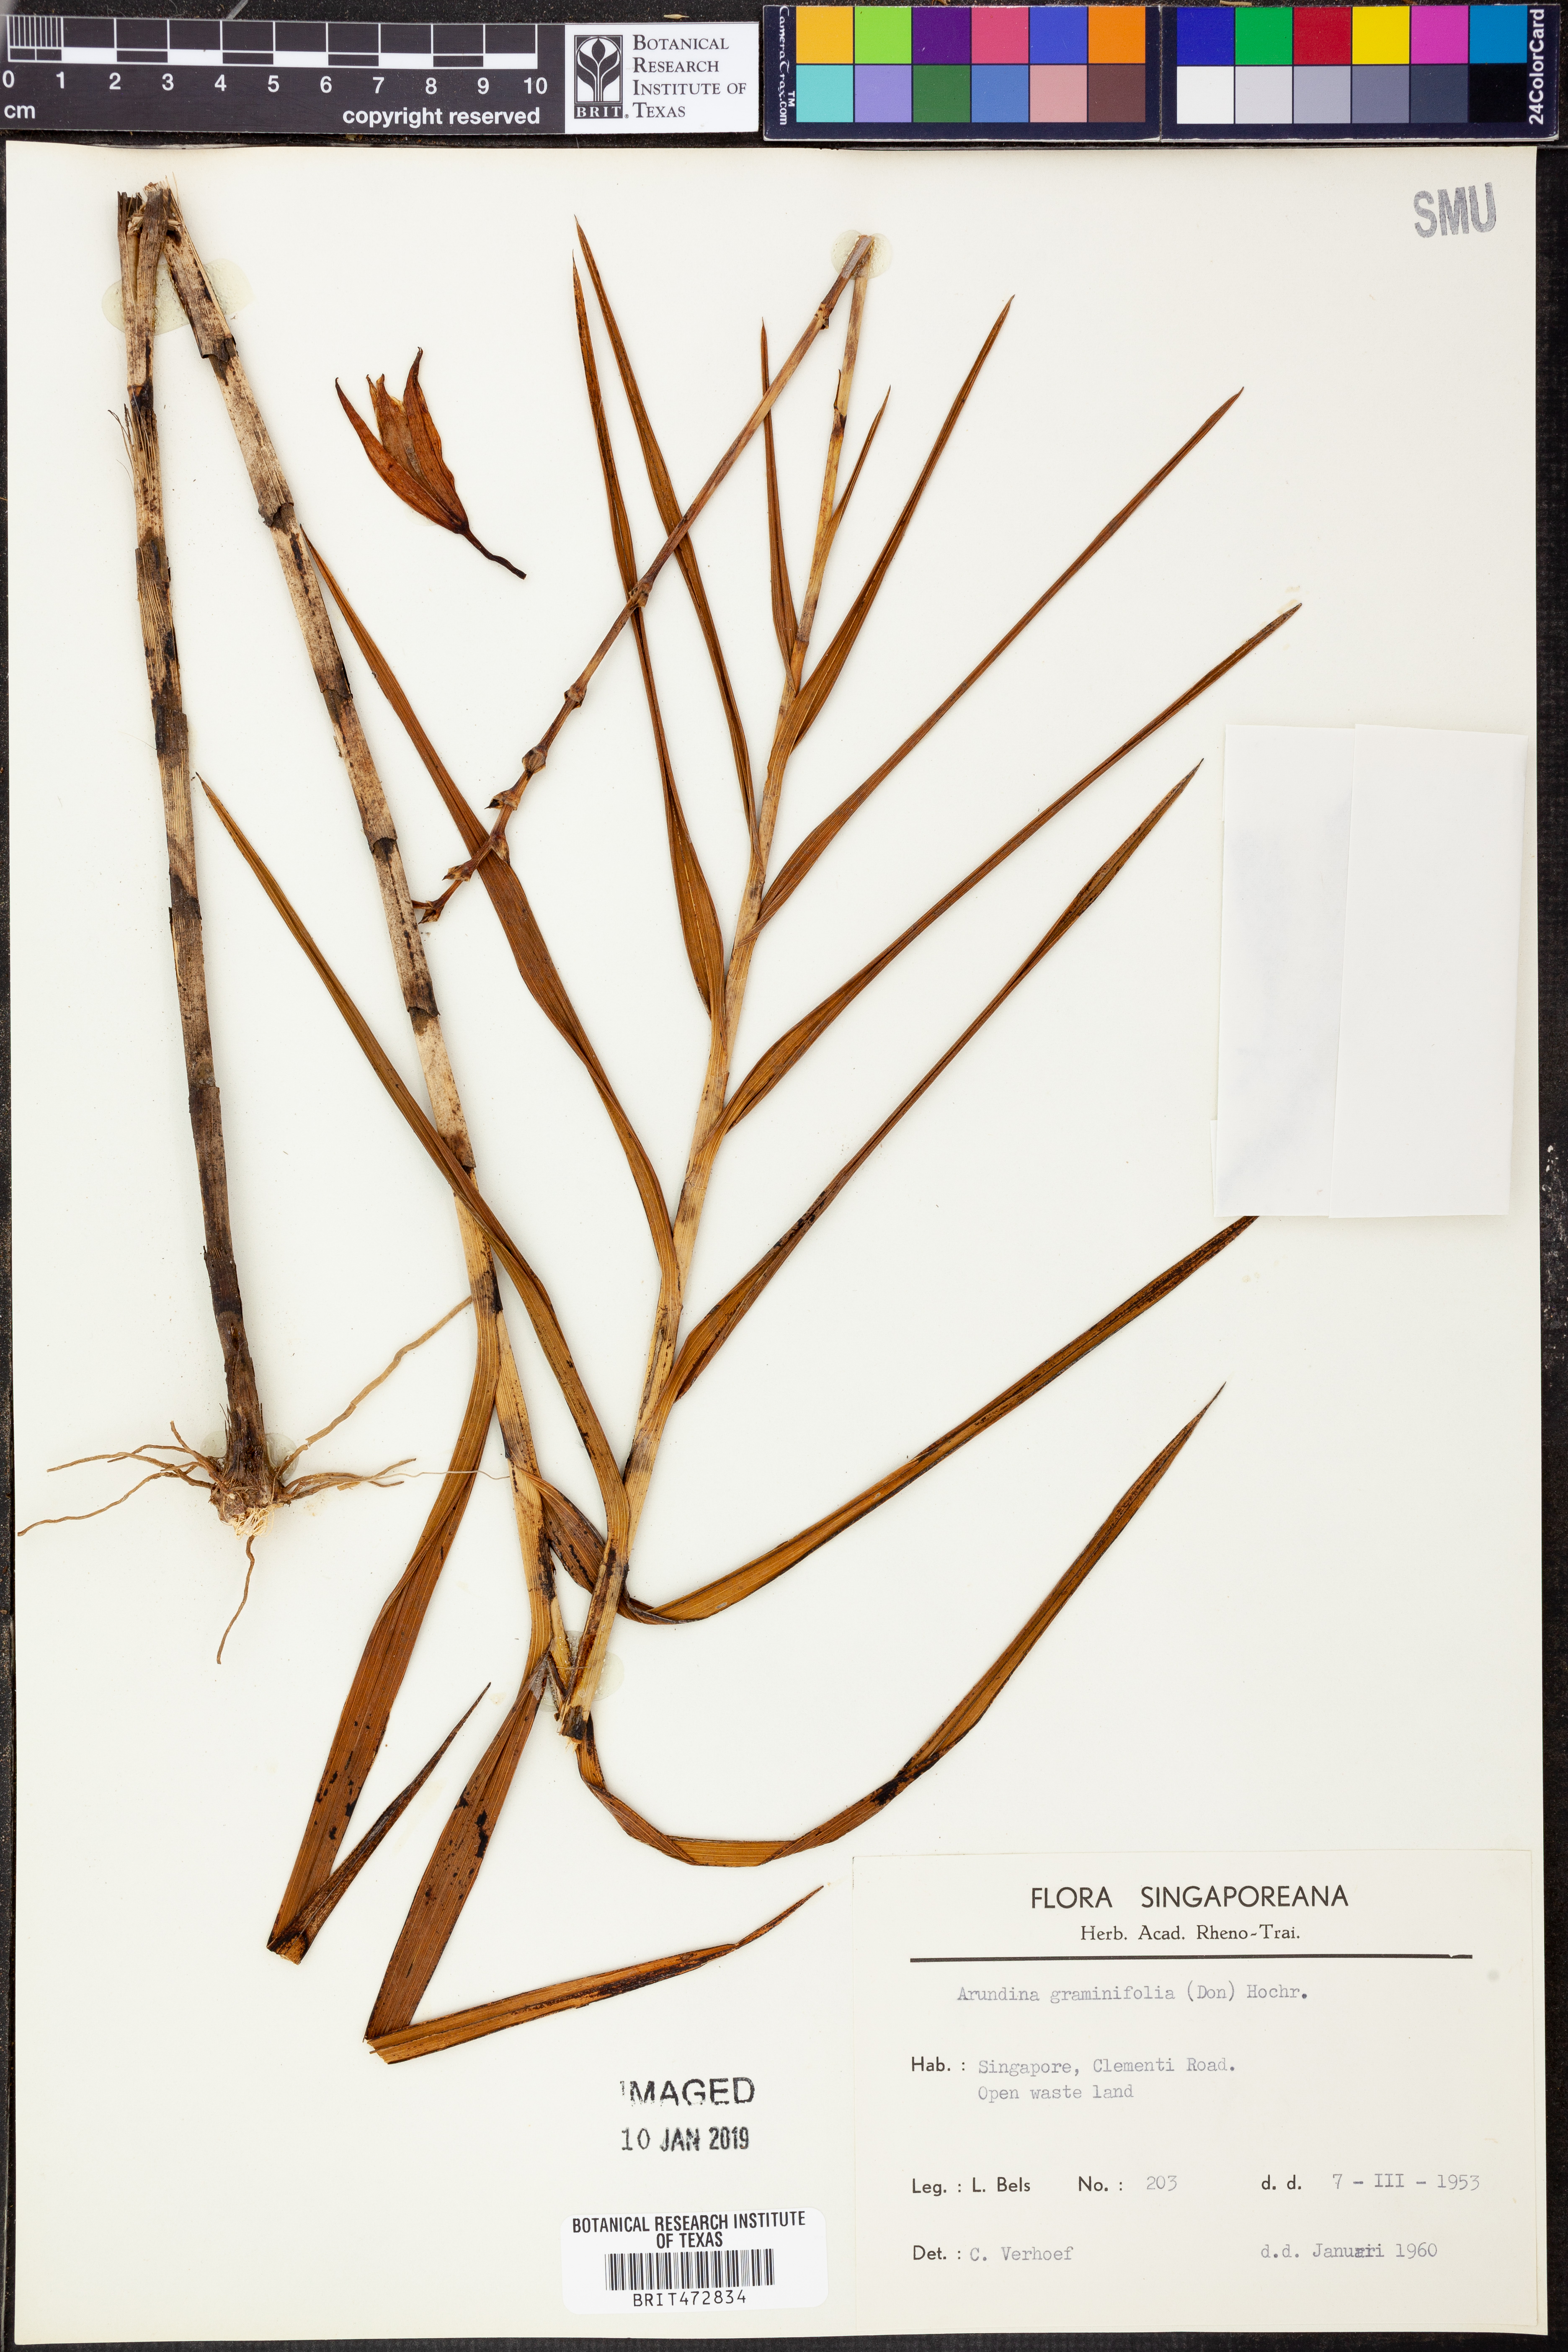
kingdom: Plantae
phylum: Tracheophyta
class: Liliopsida
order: Asparagales
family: Orchidaceae
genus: Arundina
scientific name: Arundina graminifolia
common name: Bamboo orchid
